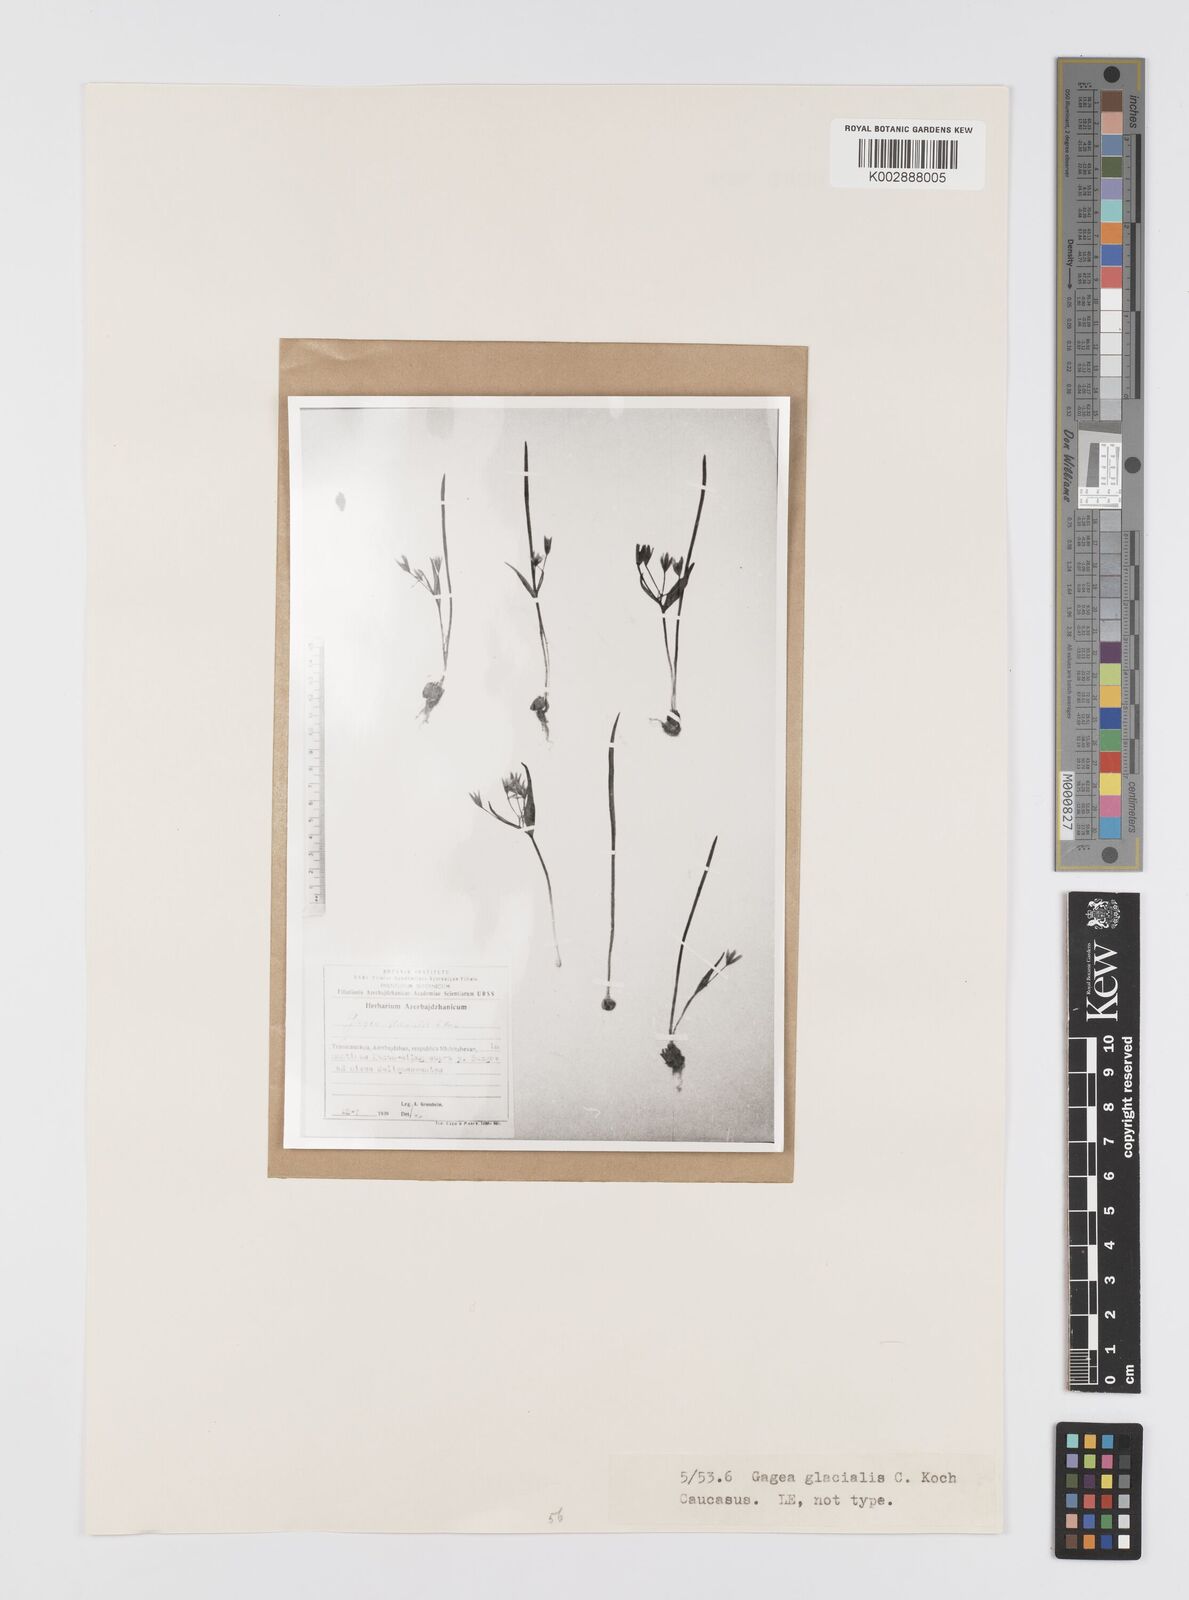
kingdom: Plantae
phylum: Tracheophyta
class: Liliopsida
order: Liliales
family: Liliaceae
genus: Gagea
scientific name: Gagea glacialis
